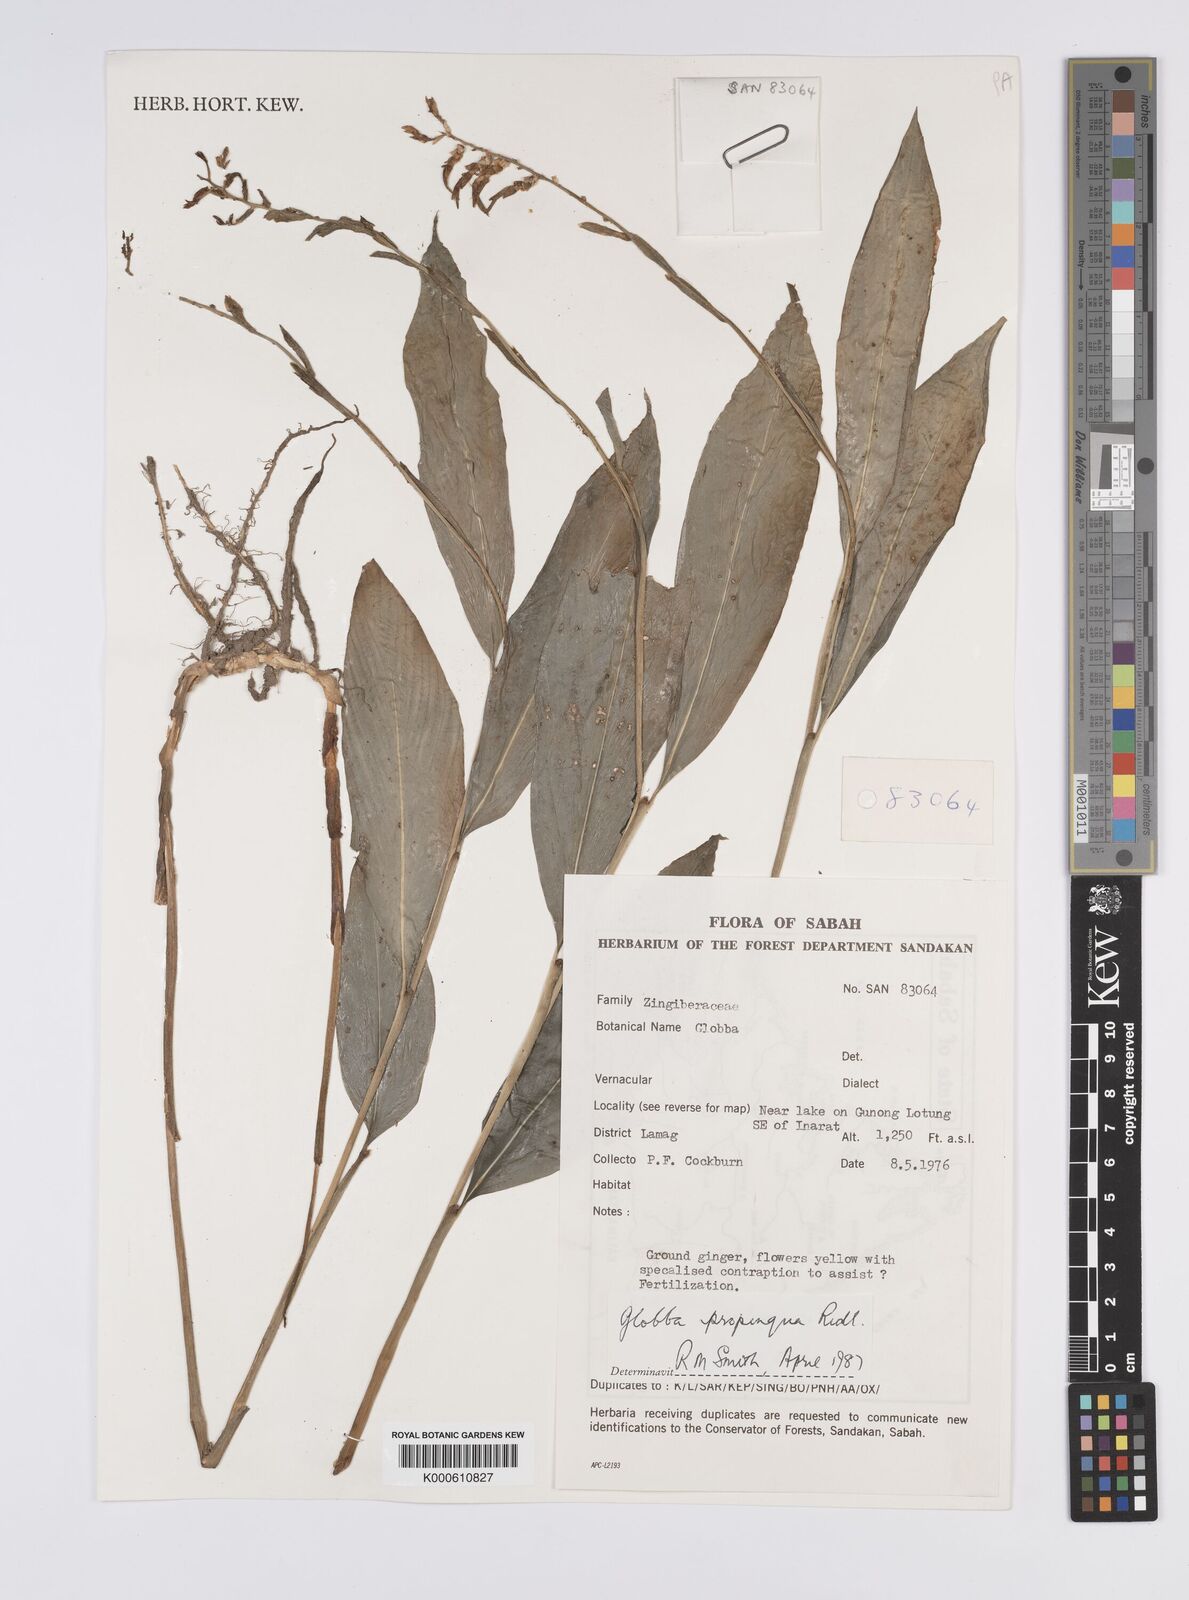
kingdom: Plantae
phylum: Tracheophyta
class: Liliopsida
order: Zingiberales
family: Zingiberaceae
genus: Globba
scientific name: Globba
